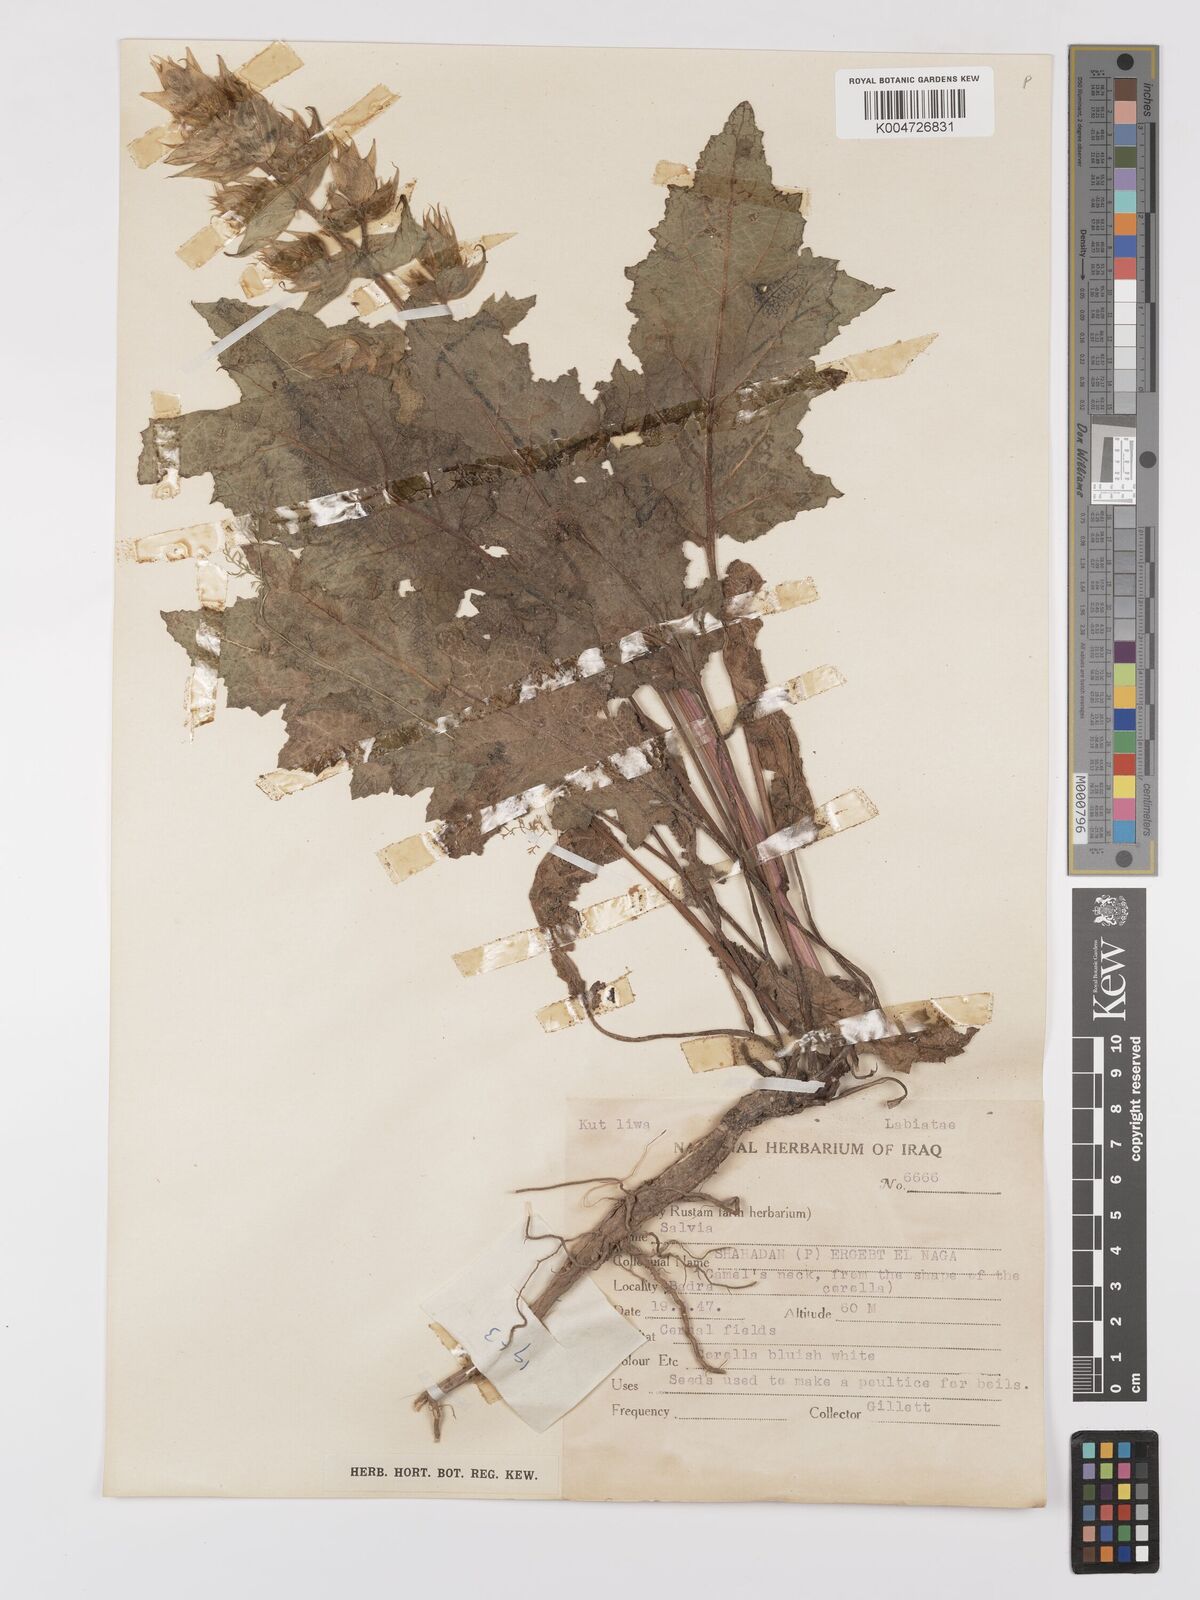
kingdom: Plantae
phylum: Tracheophyta
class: Magnoliopsida
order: Lamiales
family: Lamiaceae
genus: Salvia
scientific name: Salvia
